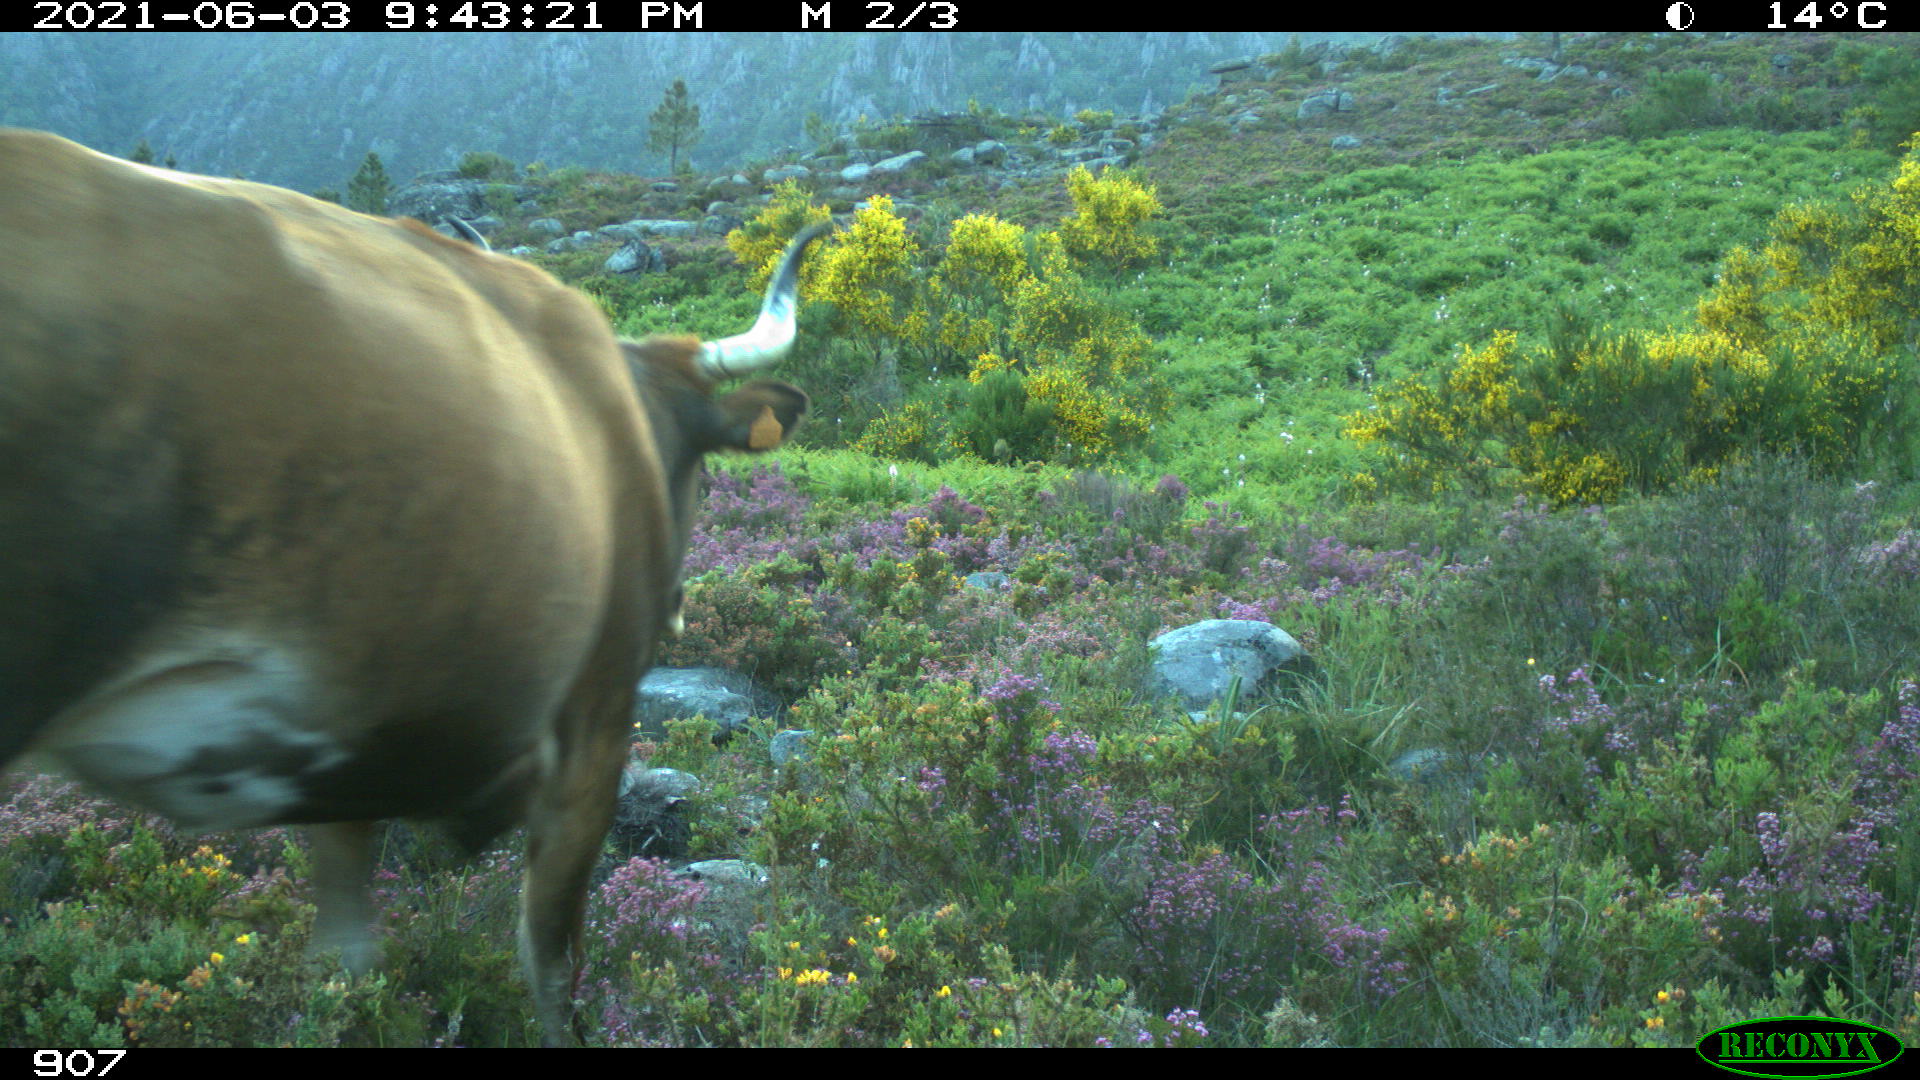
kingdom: Animalia
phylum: Chordata
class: Mammalia
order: Artiodactyla
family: Bovidae
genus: Bos
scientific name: Bos taurus
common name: Domesticated cattle
